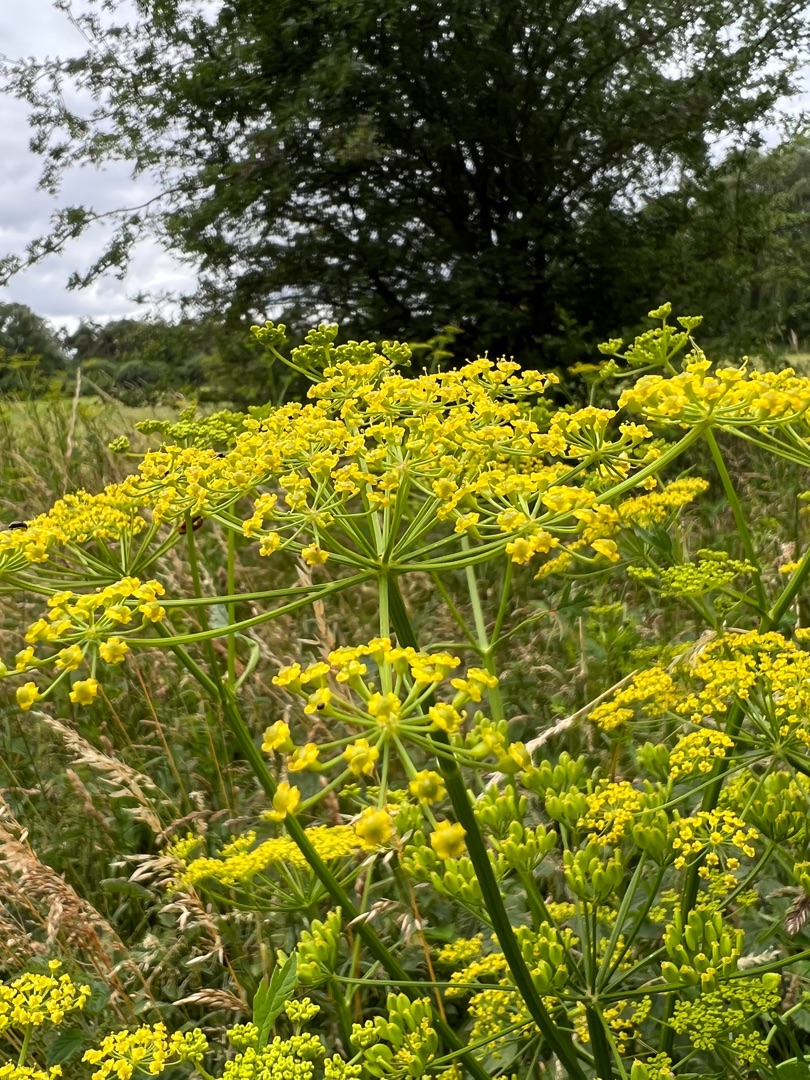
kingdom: Plantae
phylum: Tracheophyta
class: Magnoliopsida
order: Apiales
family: Apiaceae
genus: Pastinaca
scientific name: Pastinaca sativa
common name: Pastinak
